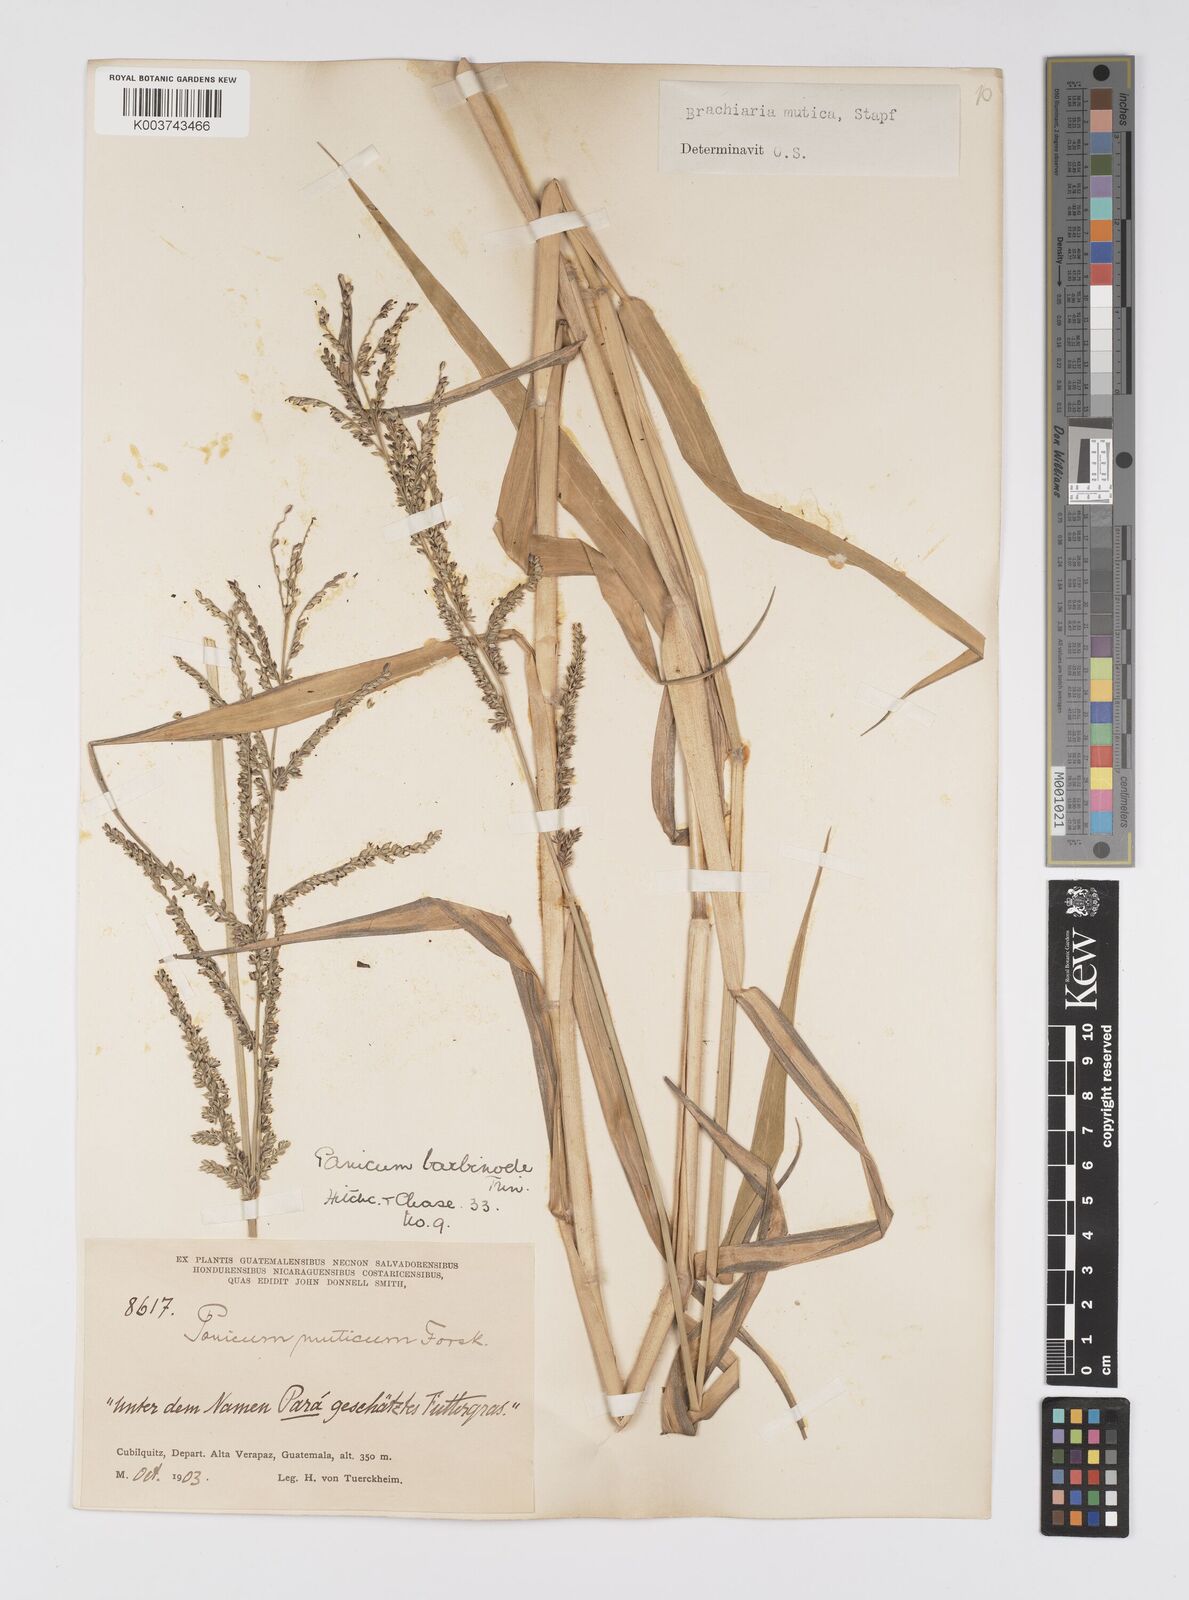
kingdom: Plantae
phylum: Tracheophyta
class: Liliopsida
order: Poales
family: Poaceae
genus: Urochloa
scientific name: Urochloa mutica
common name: Para grass
